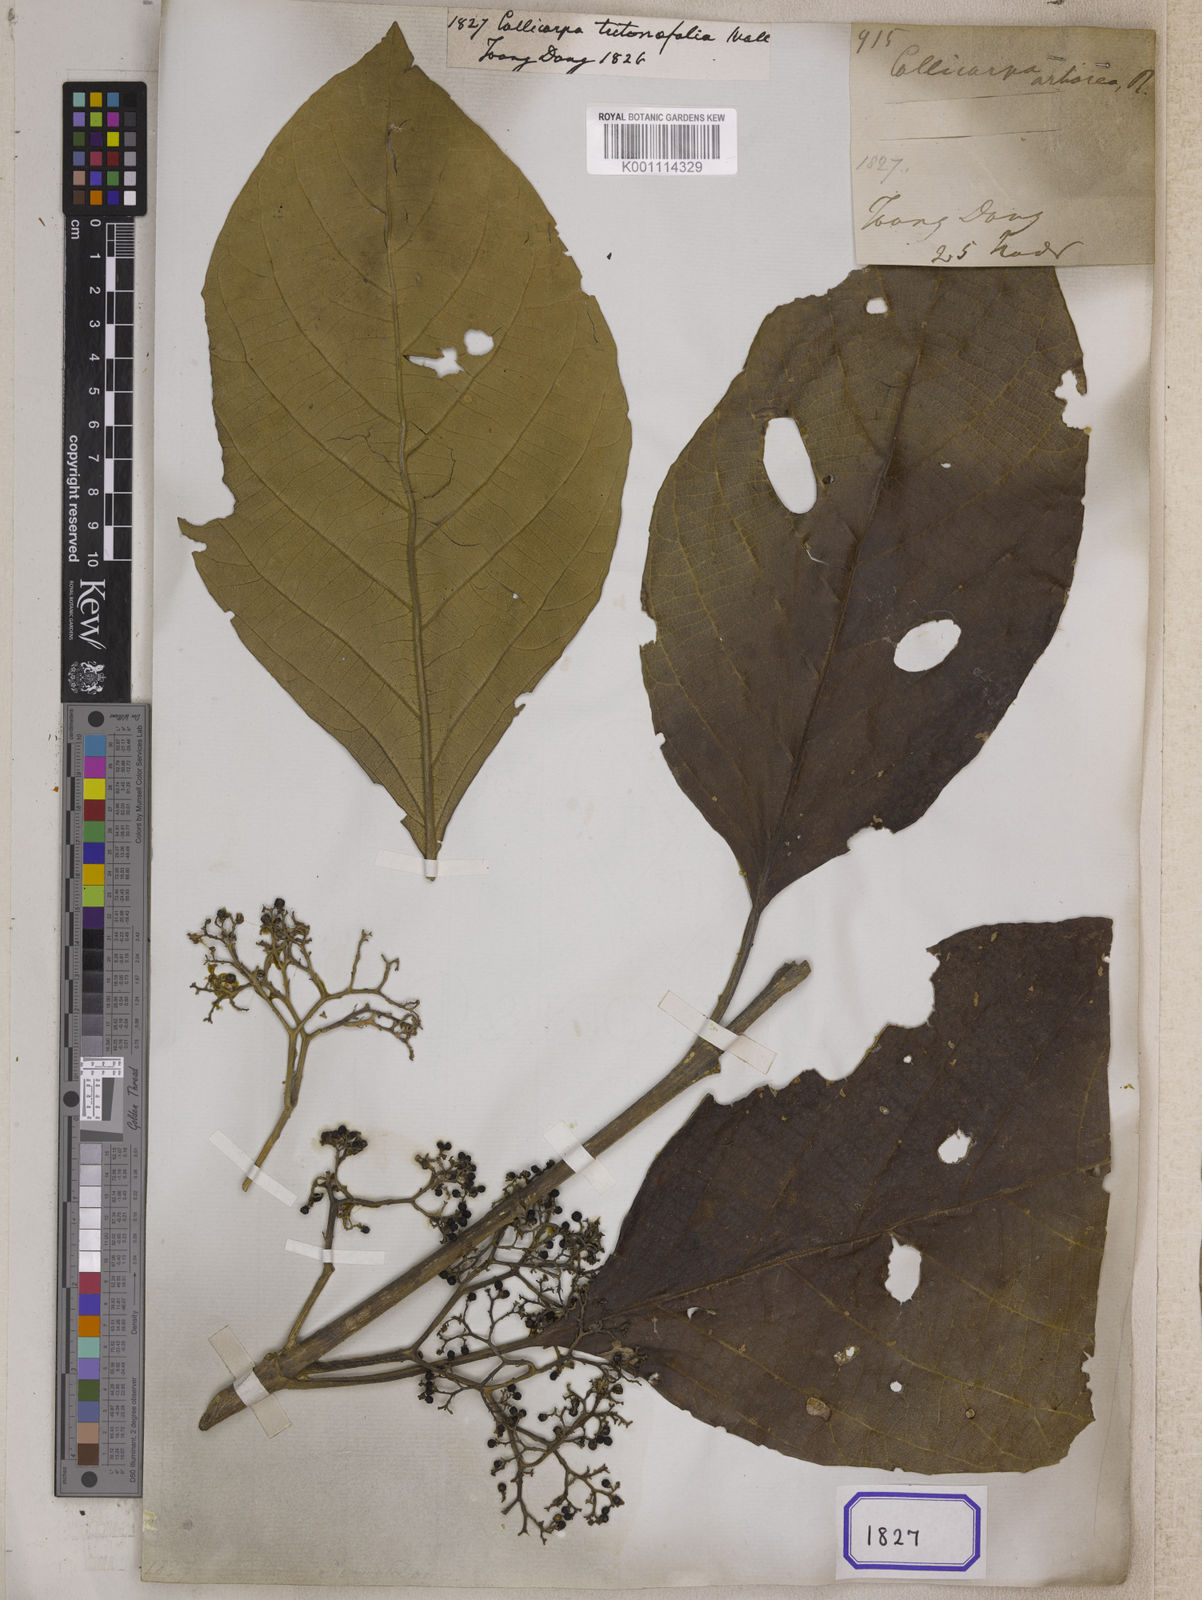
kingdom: Plantae
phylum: Tracheophyta
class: Magnoliopsida
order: Lamiales
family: Lamiaceae
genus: Callicarpa
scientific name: Callicarpa arborea
